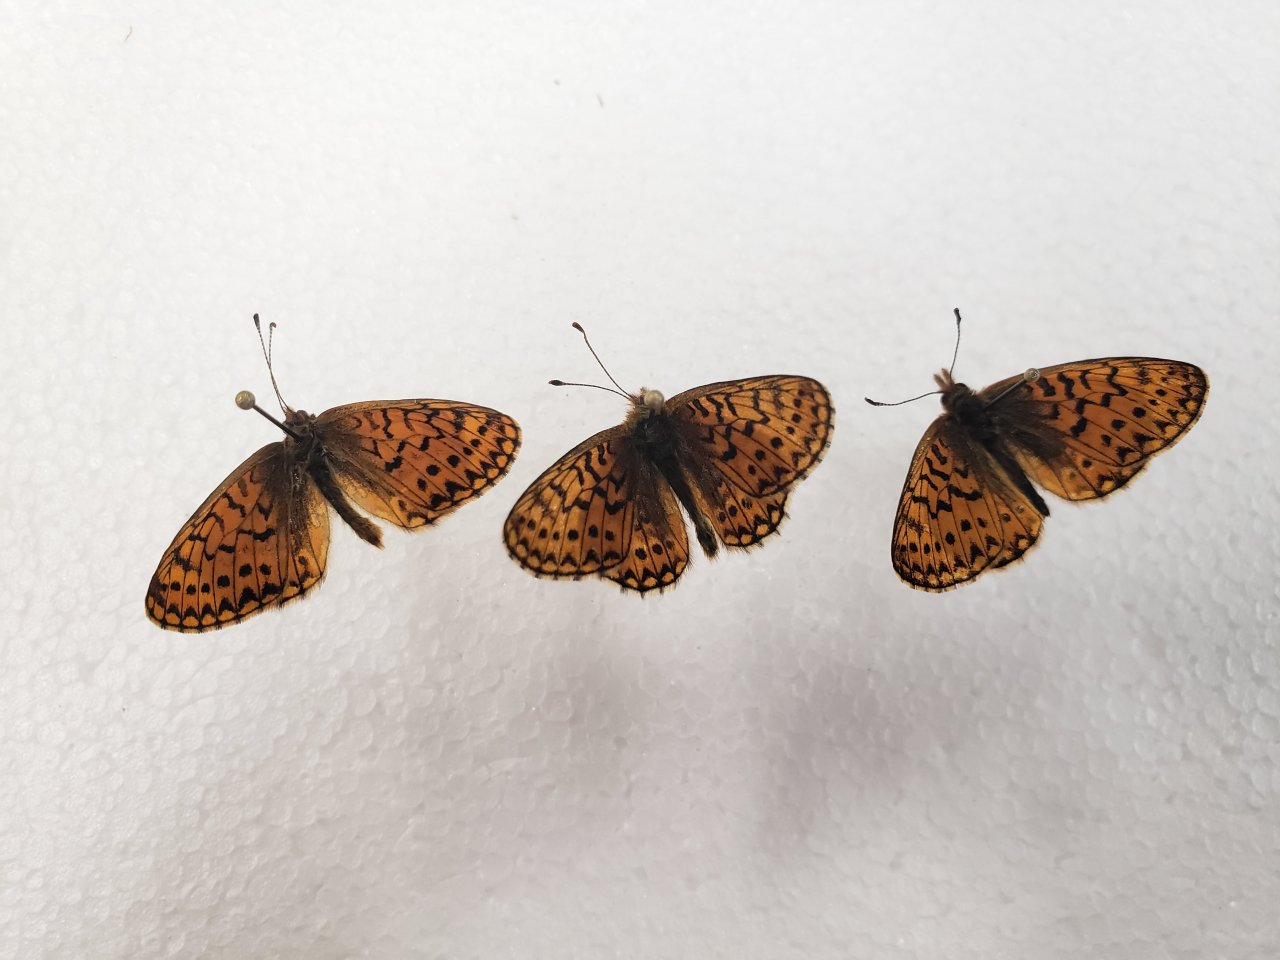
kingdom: Animalia
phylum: Arthropoda
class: Insecta
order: Lepidoptera
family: Nymphalidae
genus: Boloria
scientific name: Boloria eunomia
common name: Bog Fritillary
